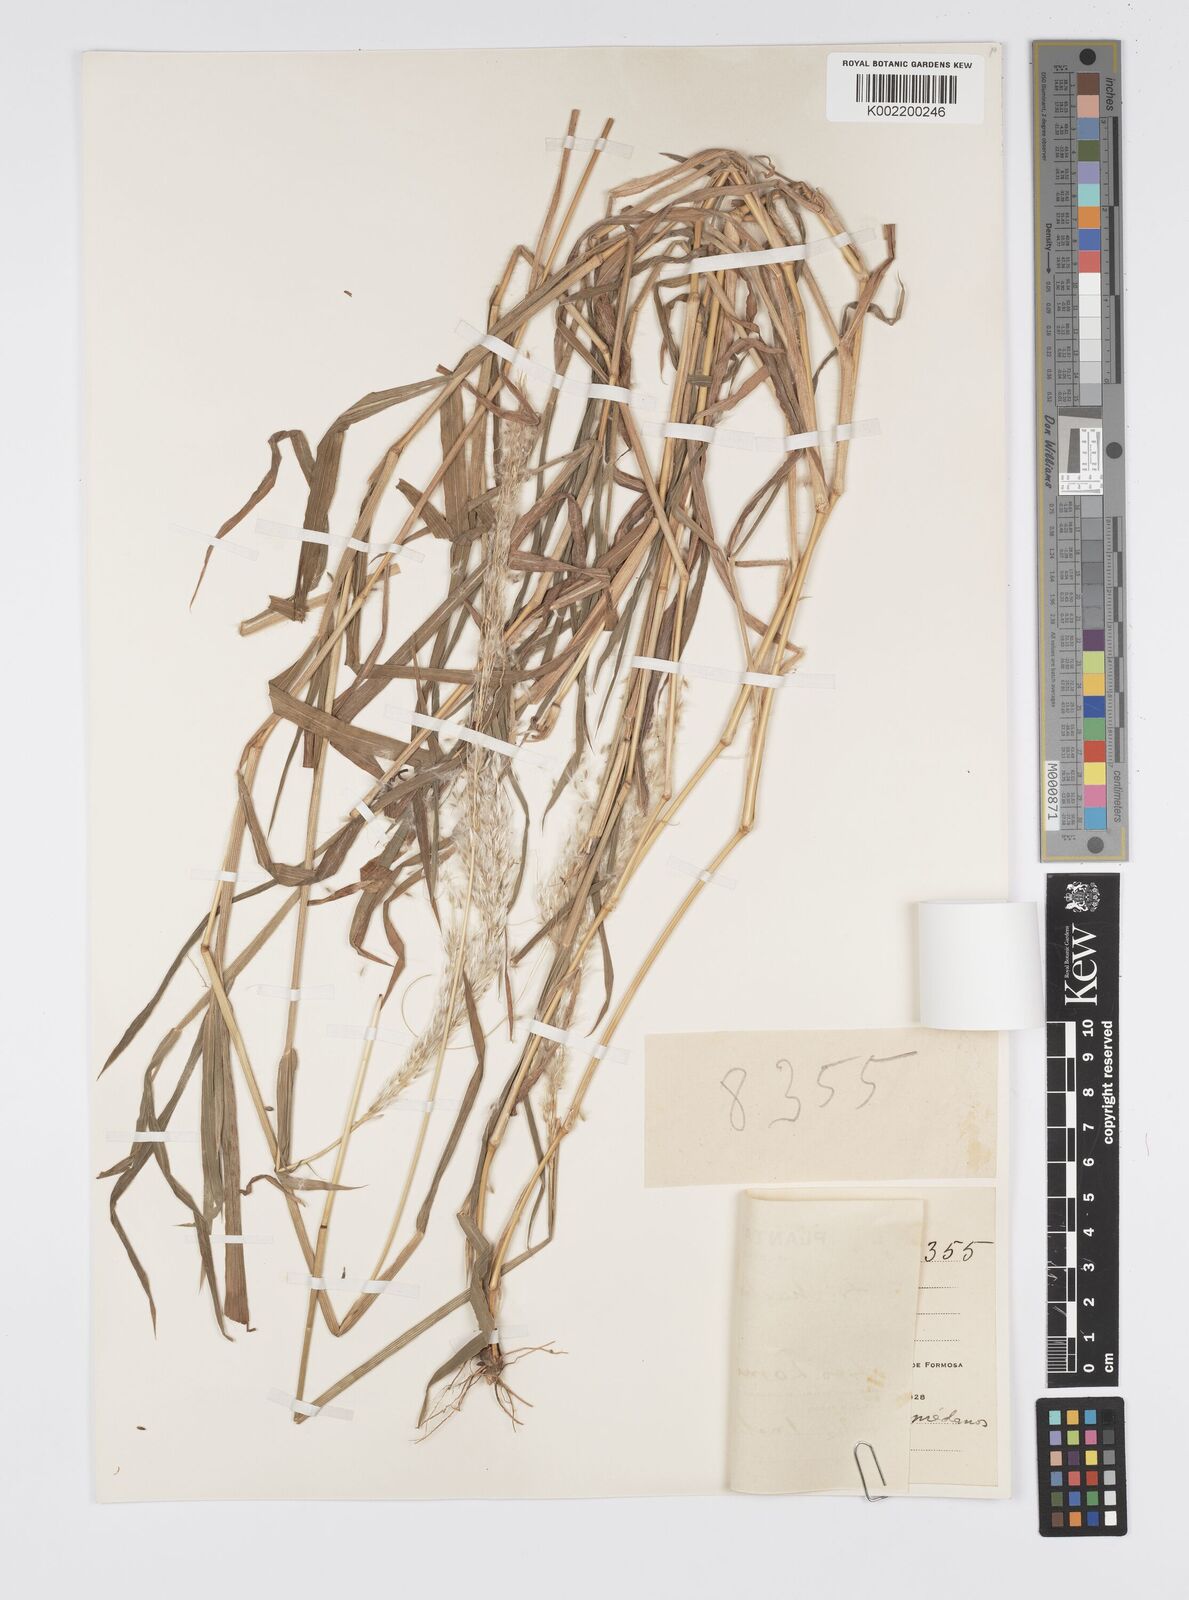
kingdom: Plantae
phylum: Tracheophyta
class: Liliopsida
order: Poales
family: Poaceae
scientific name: Poaceae
